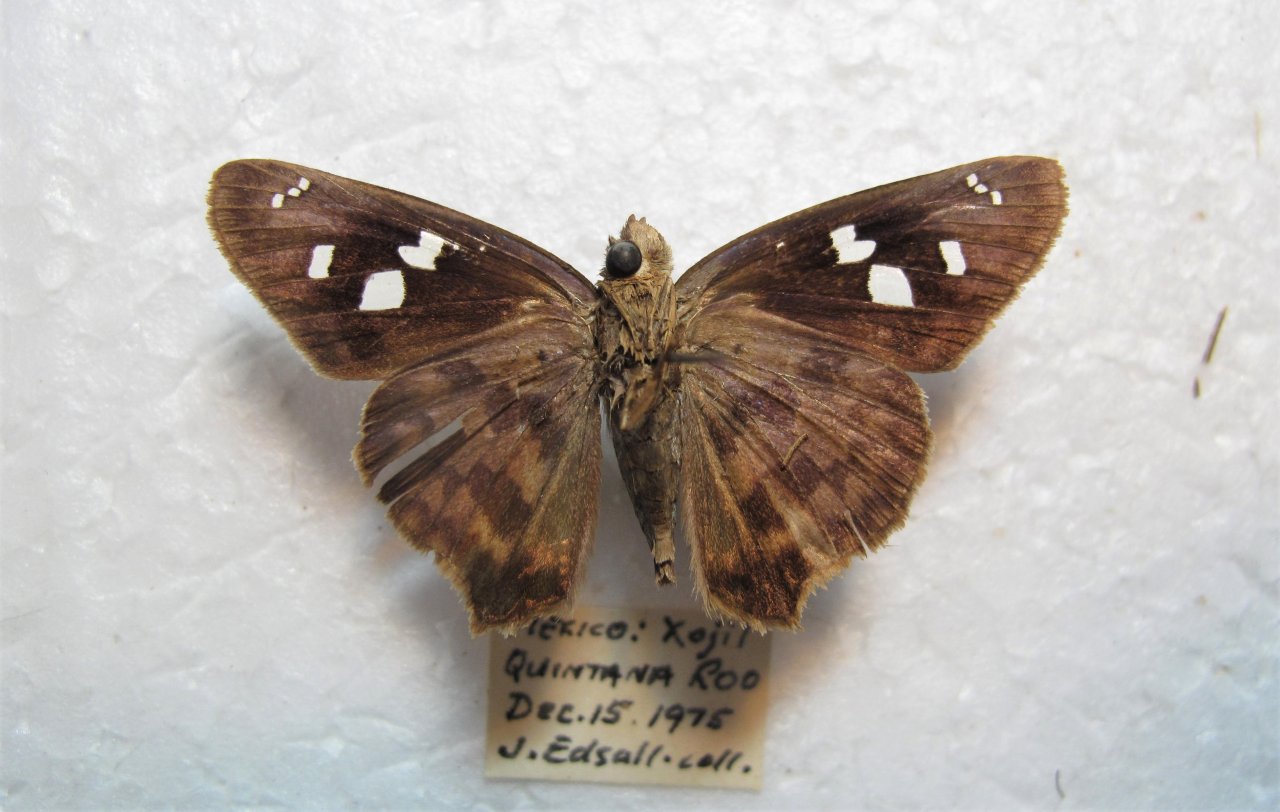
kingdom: Animalia
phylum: Arthropoda
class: Insecta
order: Lepidoptera
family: Hesperiidae
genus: Polygonus
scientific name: Polygonus leo
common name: Hammock Skipper
